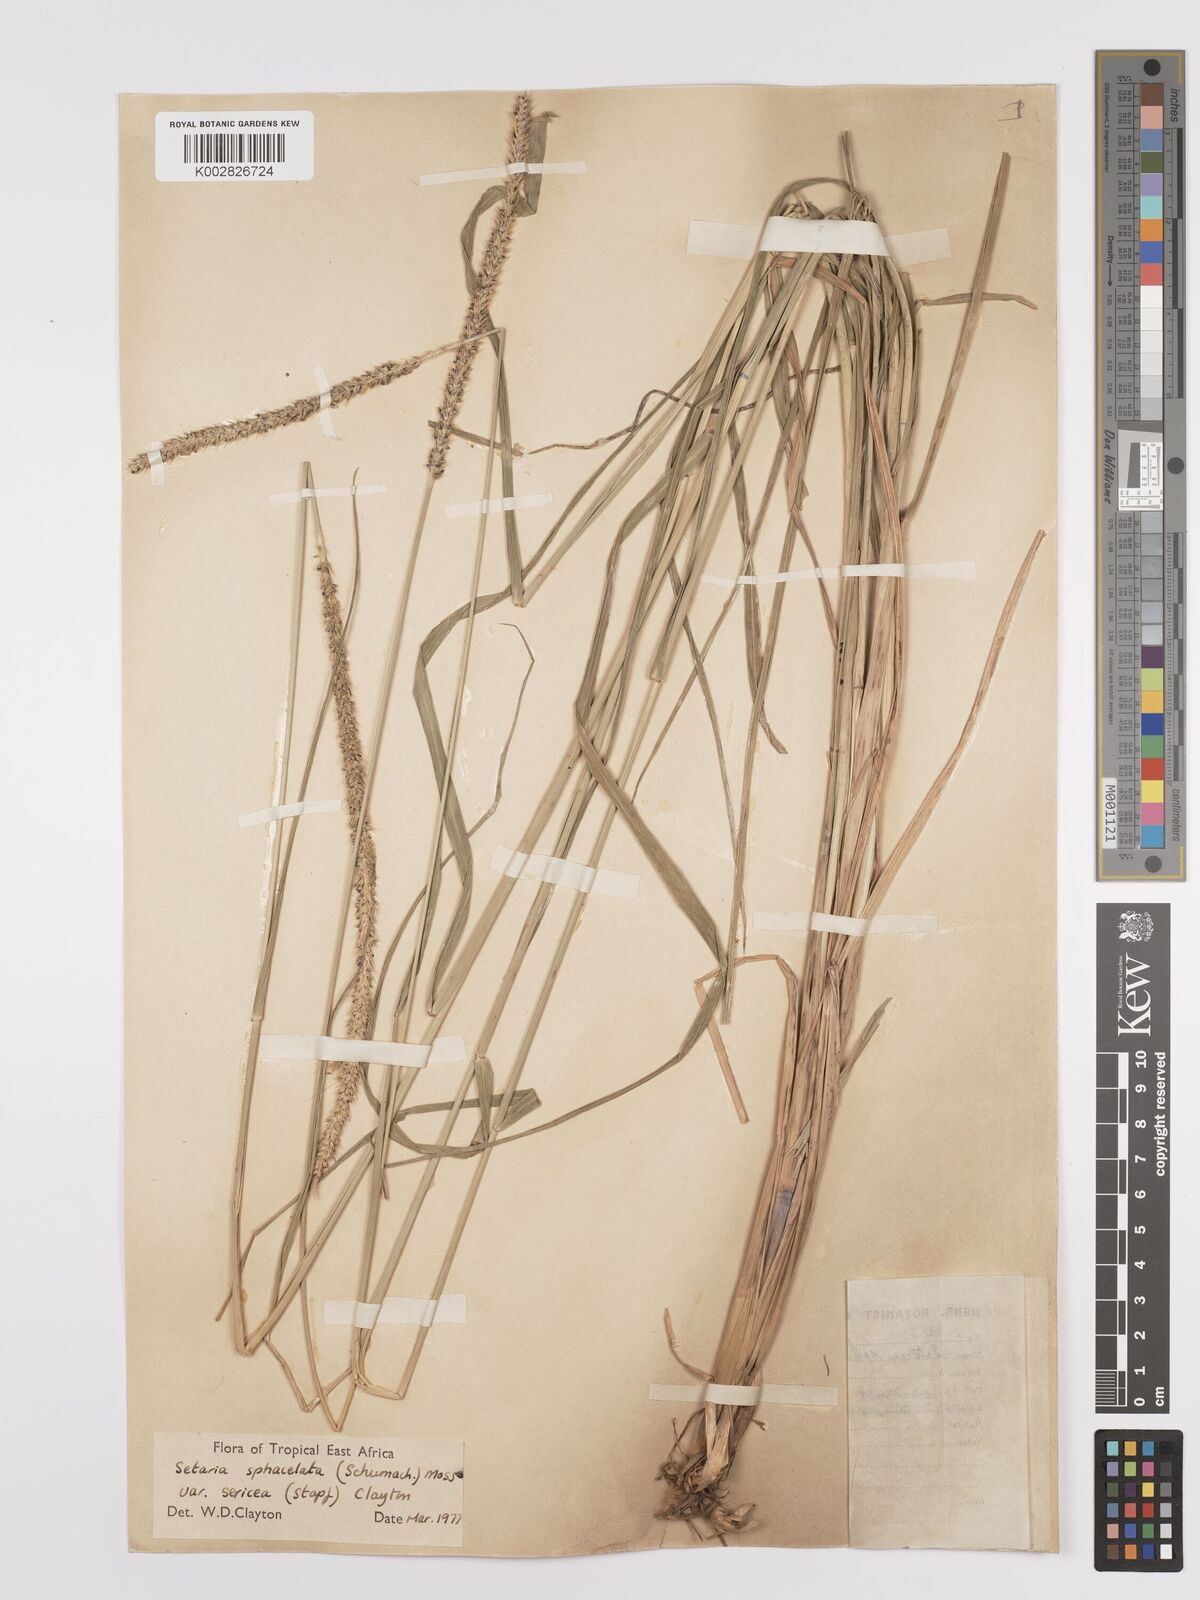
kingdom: Plantae
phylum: Tracheophyta
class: Liliopsida
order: Poales
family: Poaceae
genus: Setaria
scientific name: Setaria sphacelata
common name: African bristlegrass
